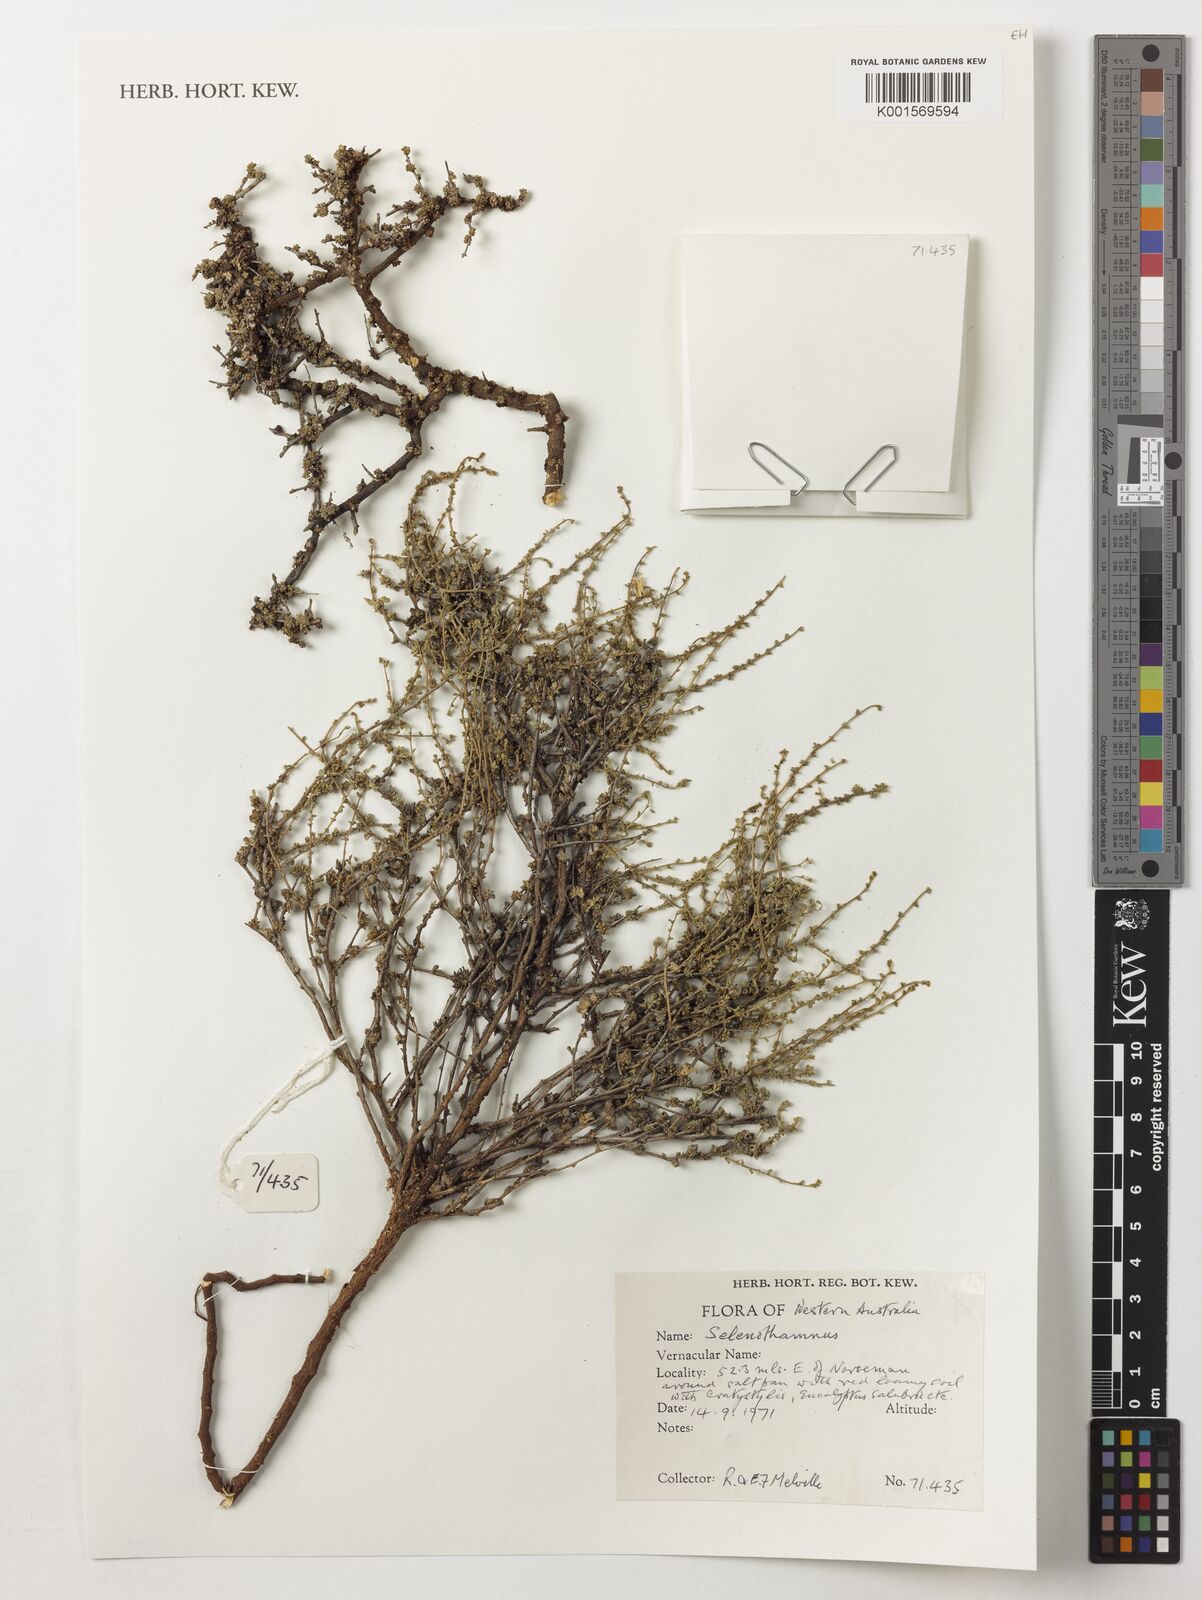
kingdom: Plantae
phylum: Tracheophyta
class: Magnoliopsida
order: Malvales
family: Malvaceae
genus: Lawrencia
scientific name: Lawrencia
